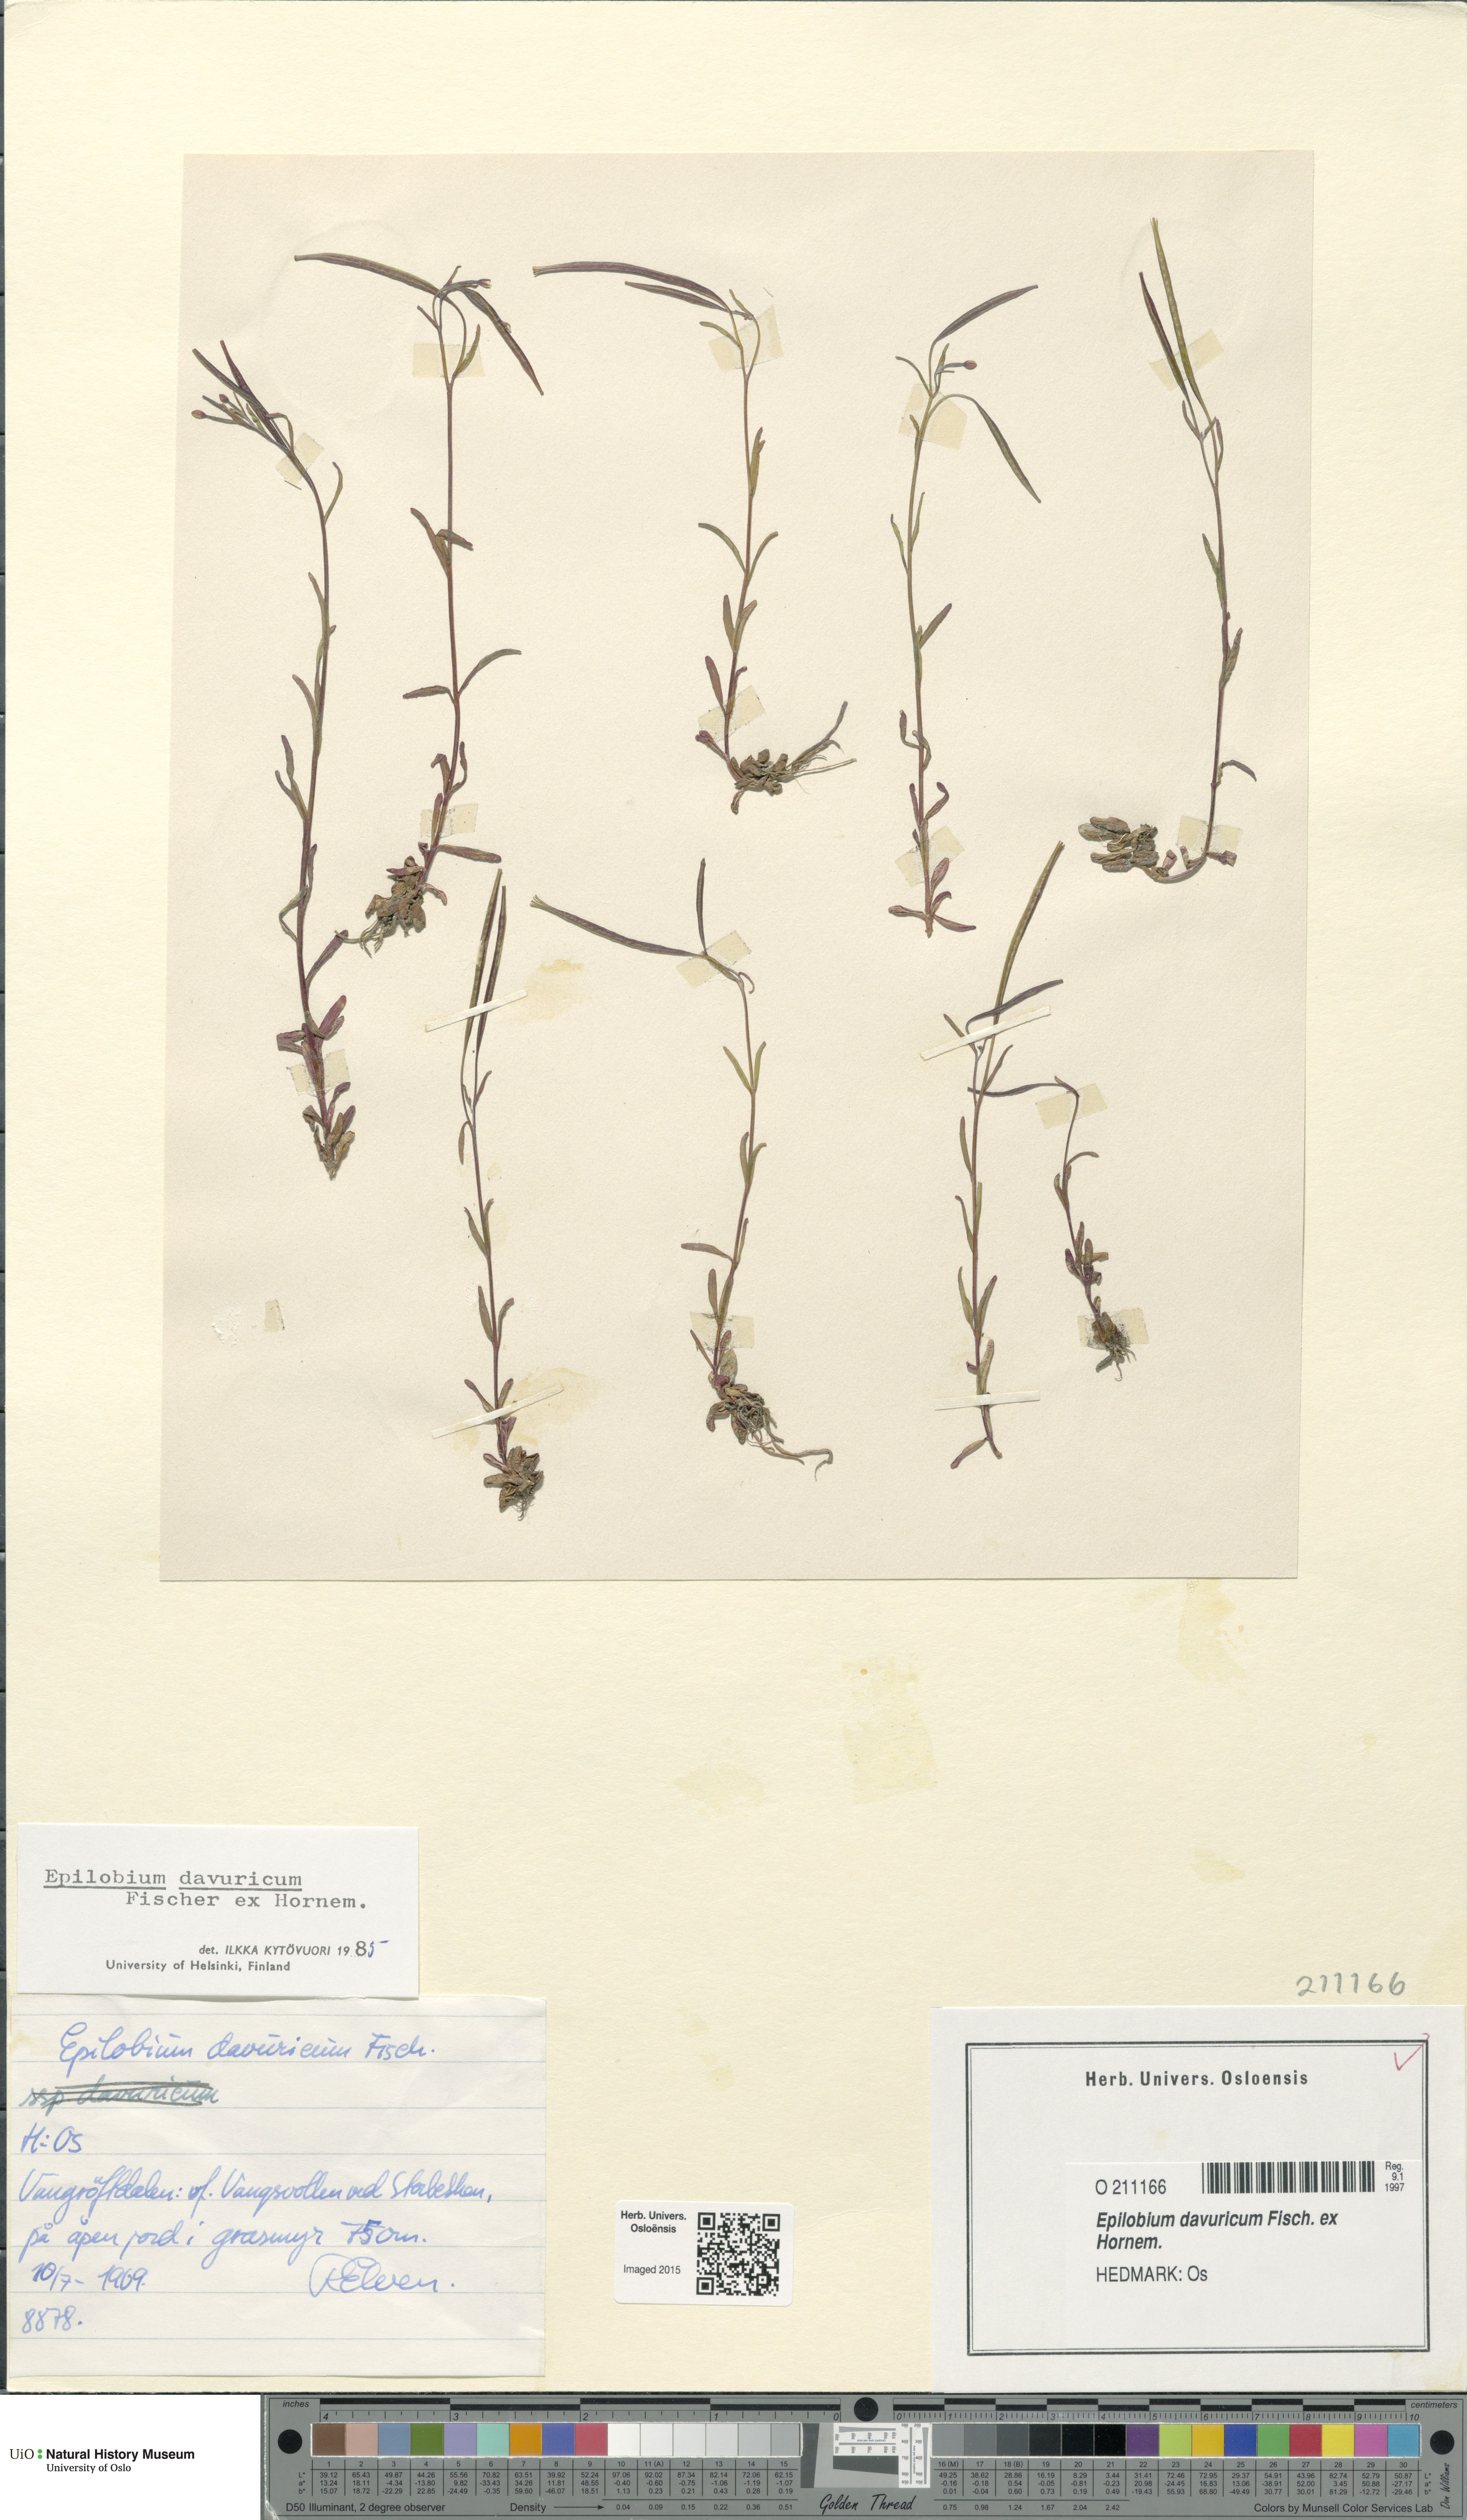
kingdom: Plantae
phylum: Tracheophyta
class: Magnoliopsida
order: Myrtales
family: Onagraceae
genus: Epilobium
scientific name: Epilobium davuricum
